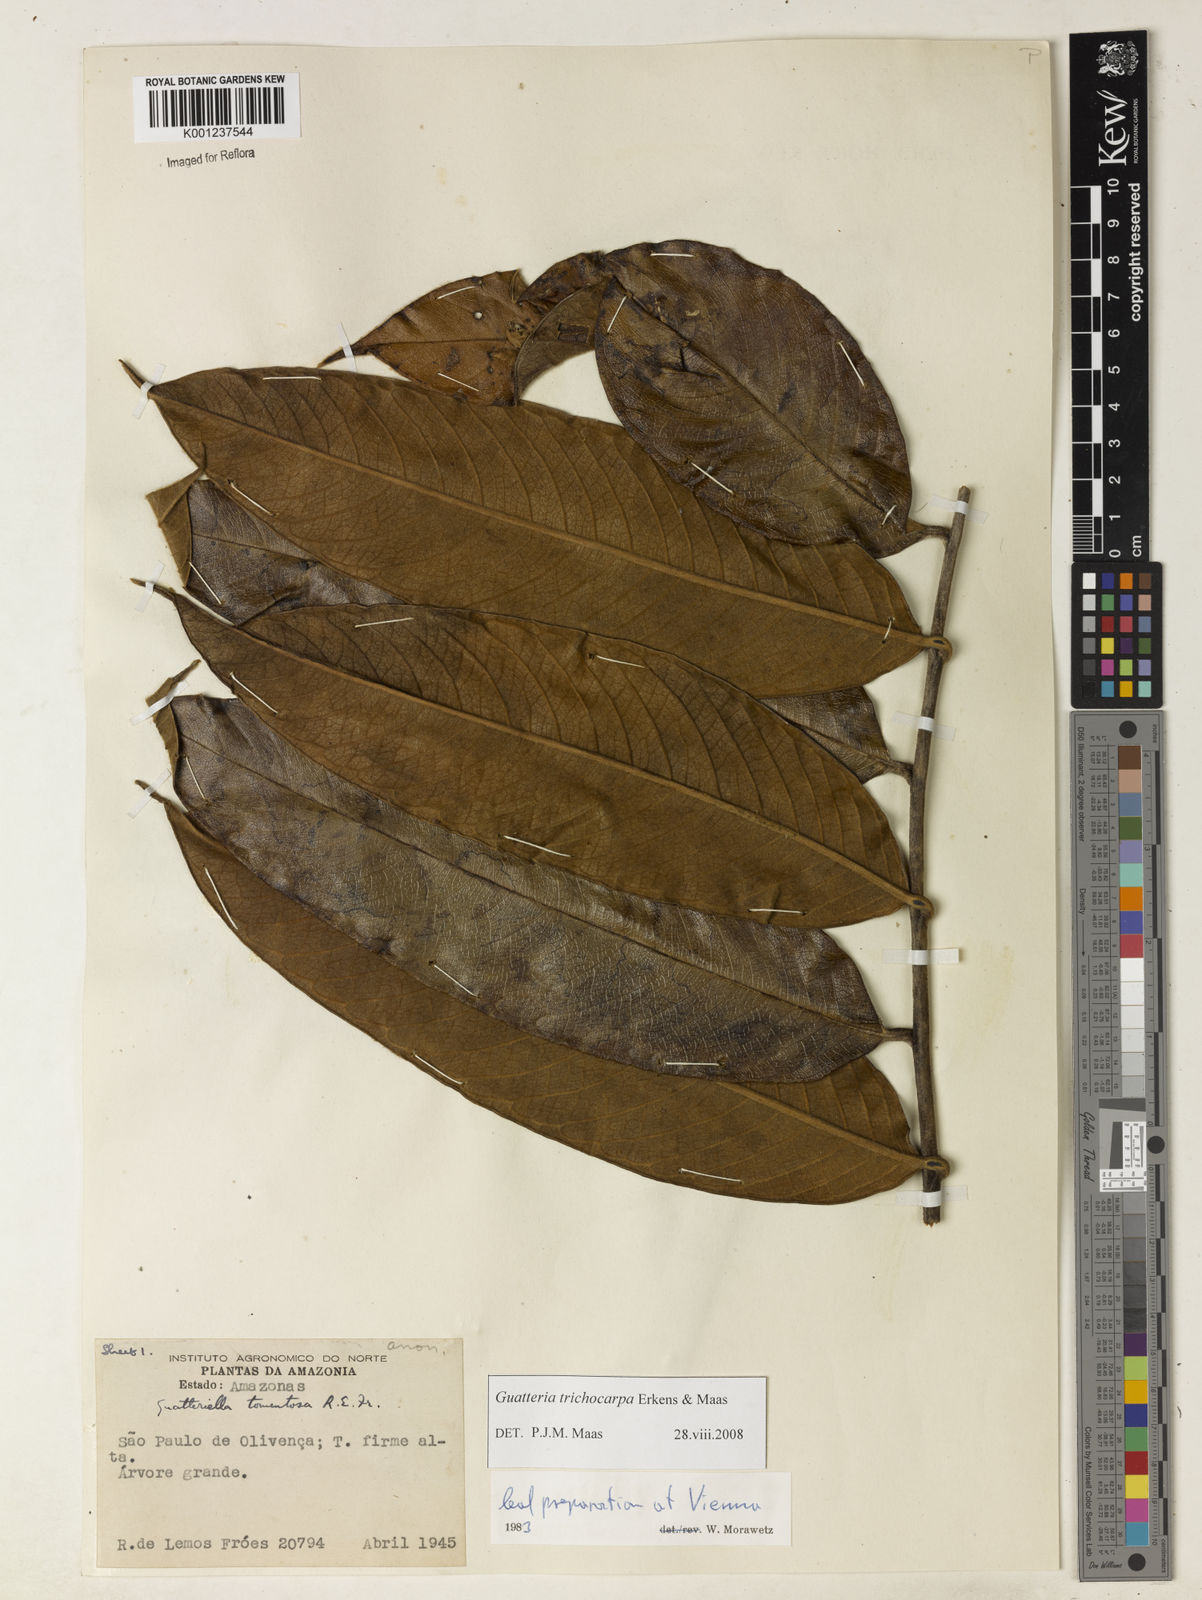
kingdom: Plantae
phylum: Tracheophyta
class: Magnoliopsida
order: Magnoliales
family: Annonaceae
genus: Guatteria
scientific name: Guatteria trichocarpa
